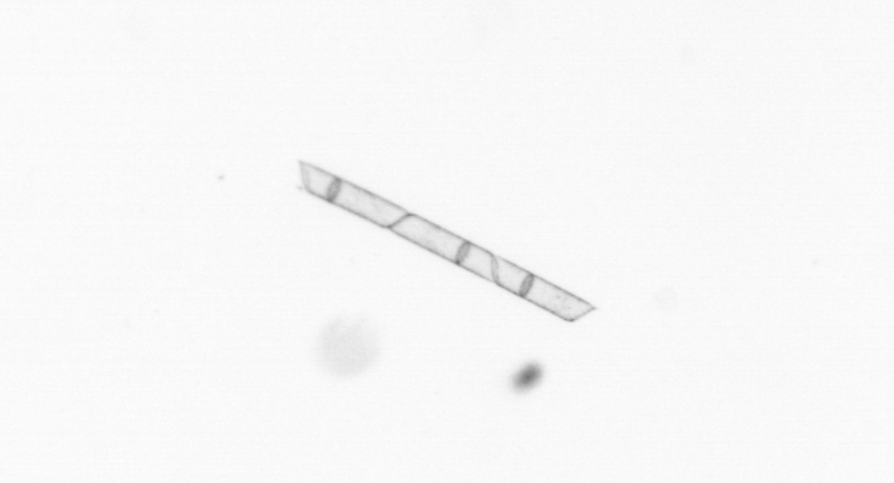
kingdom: Chromista
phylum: Ochrophyta
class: Bacillariophyceae
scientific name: Bacillariophyceae
